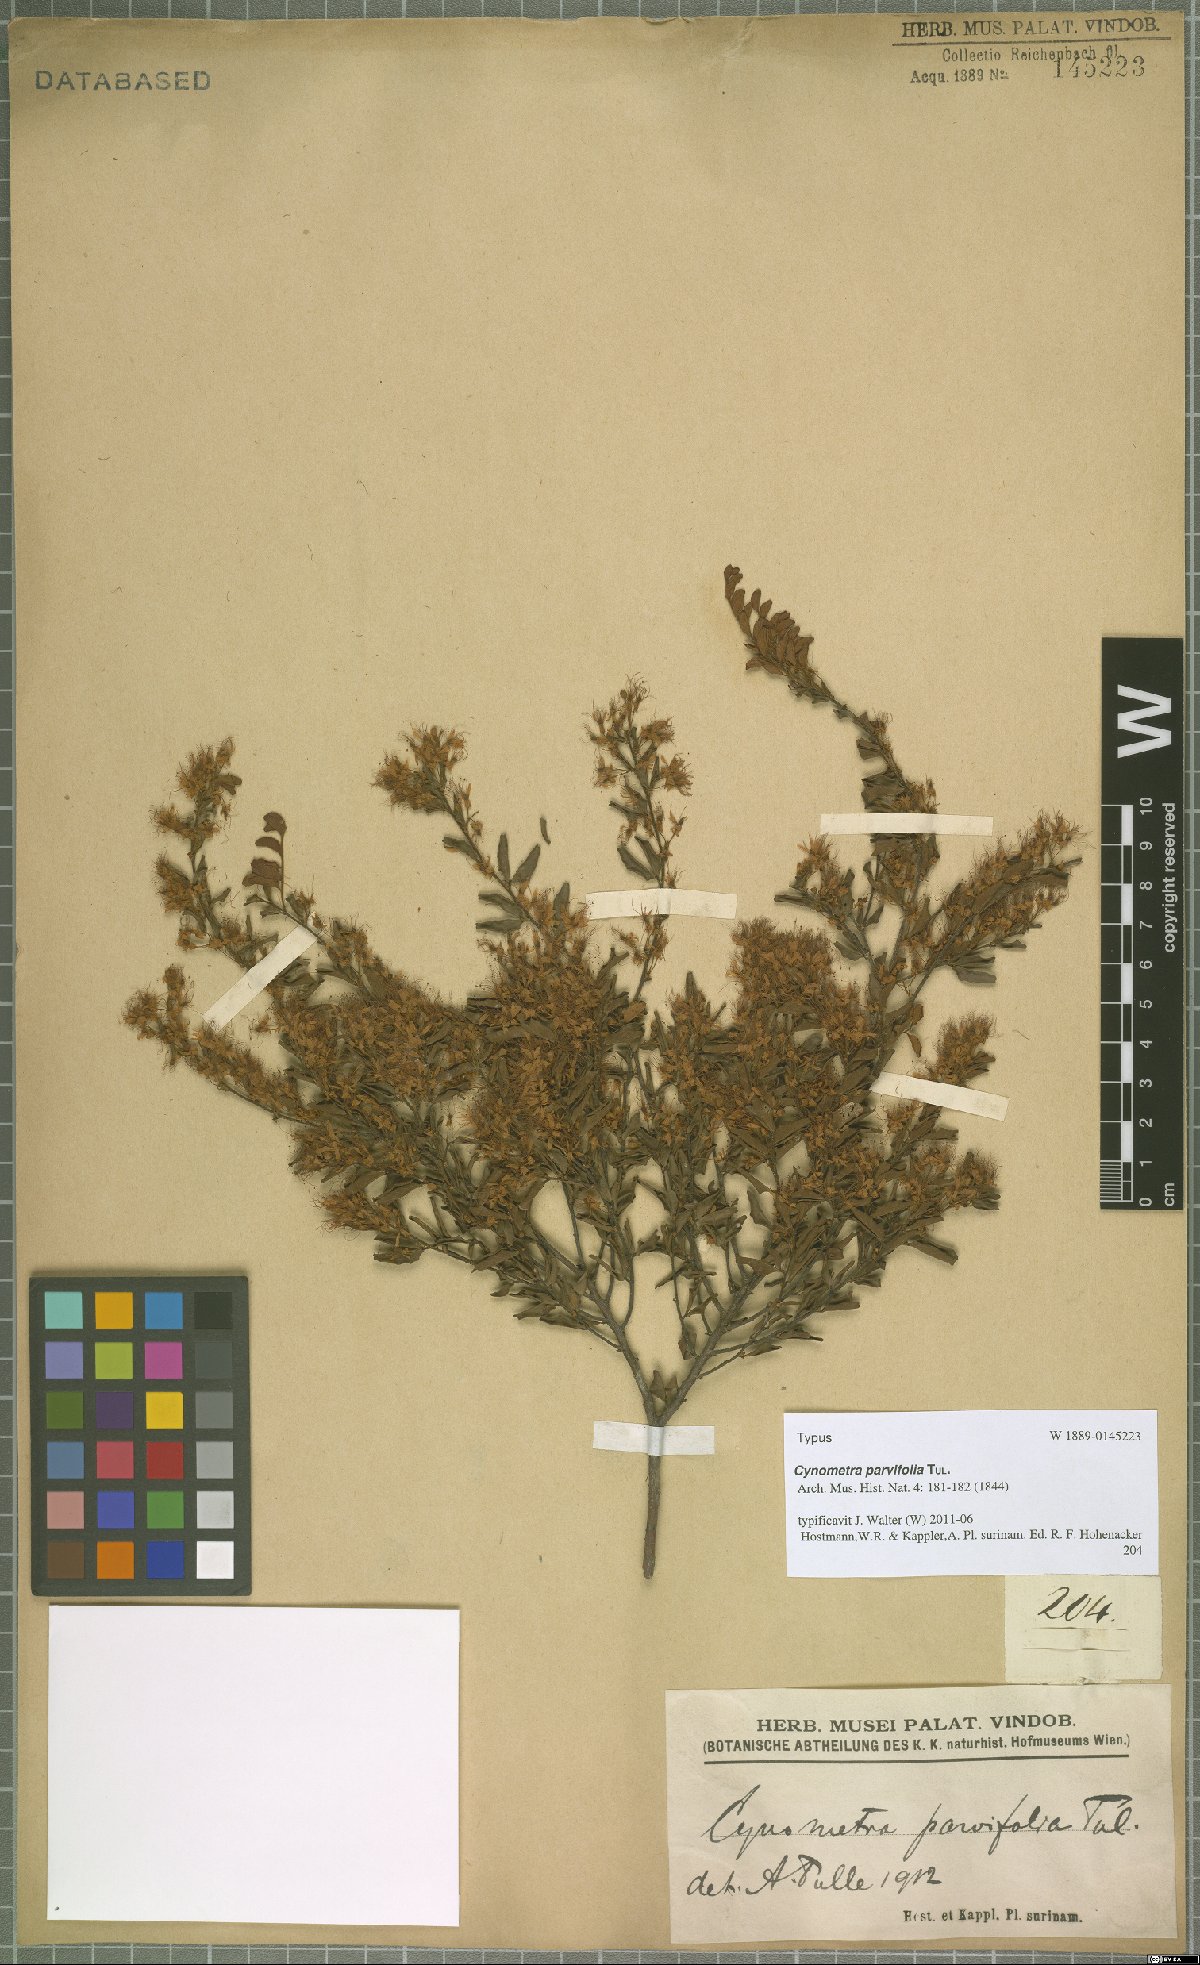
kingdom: Plantae
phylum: Tracheophyta
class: Magnoliopsida
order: Fabales
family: Fabaceae
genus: Cynometra
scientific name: Cynometra parvifolia
